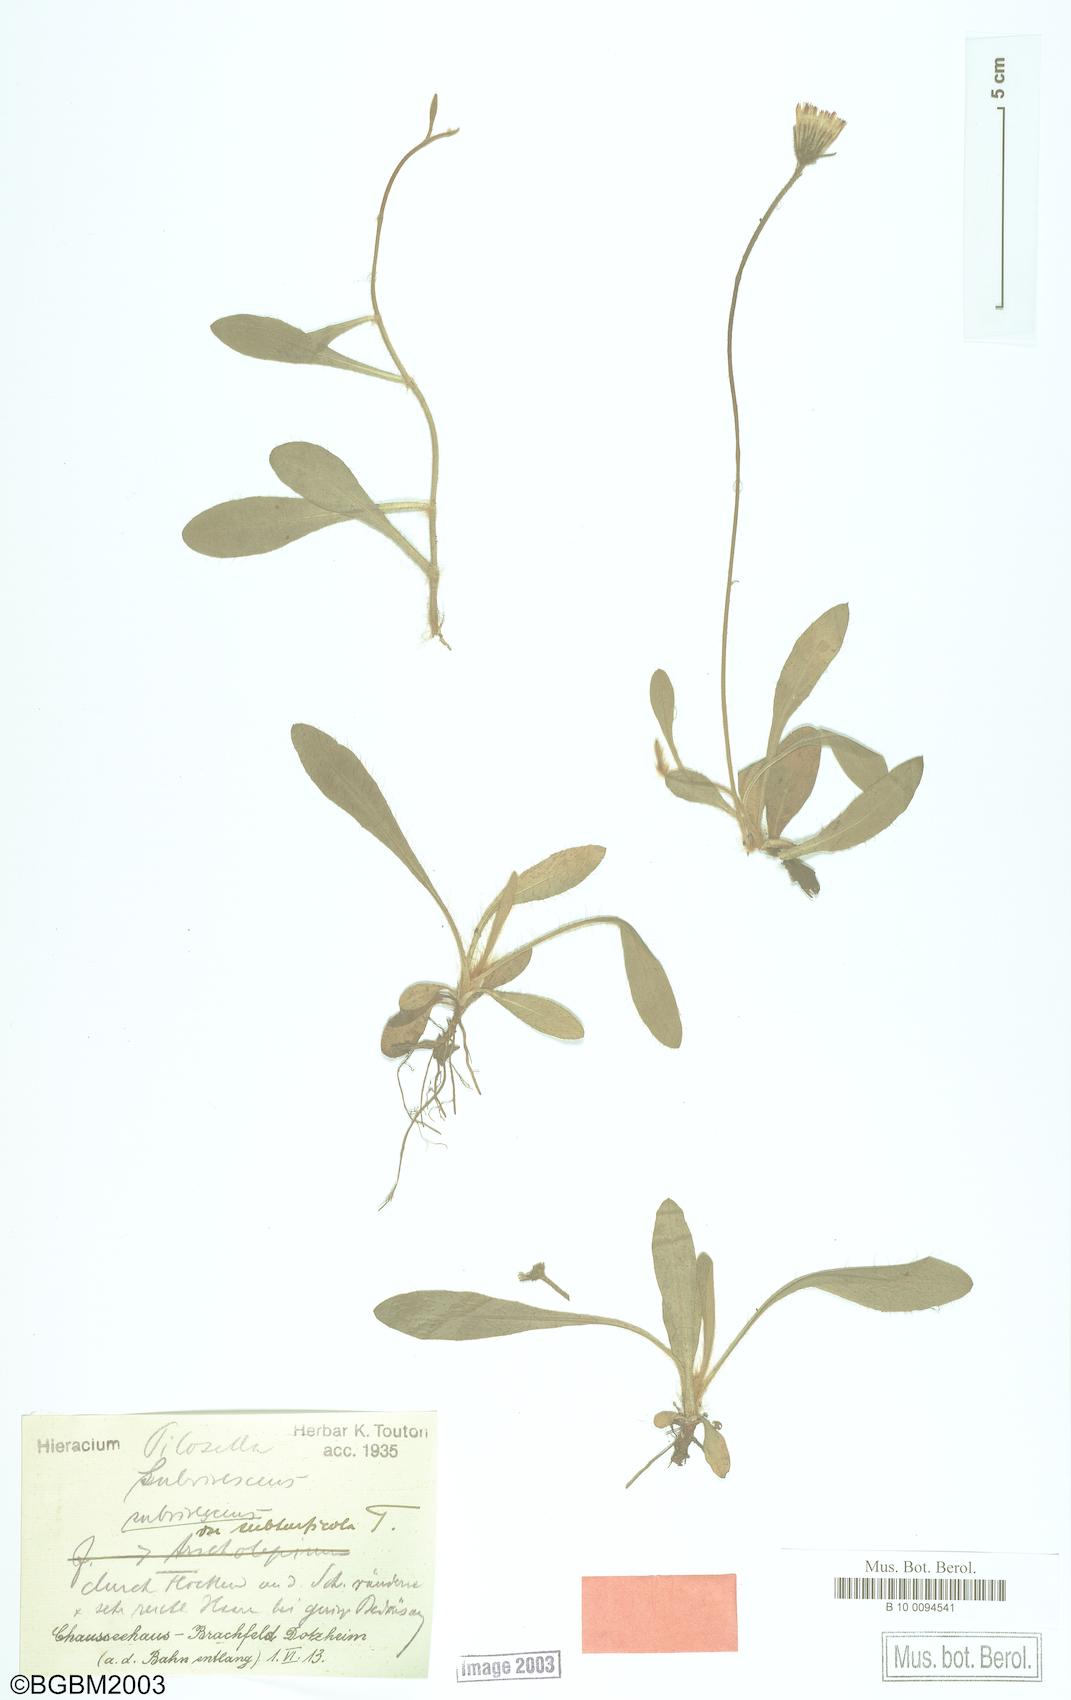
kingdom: Plantae
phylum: Tracheophyta
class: Magnoliopsida
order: Asterales
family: Asteraceae
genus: Pilosella
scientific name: Pilosella officinarum
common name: Mouse-ear hawkweed
